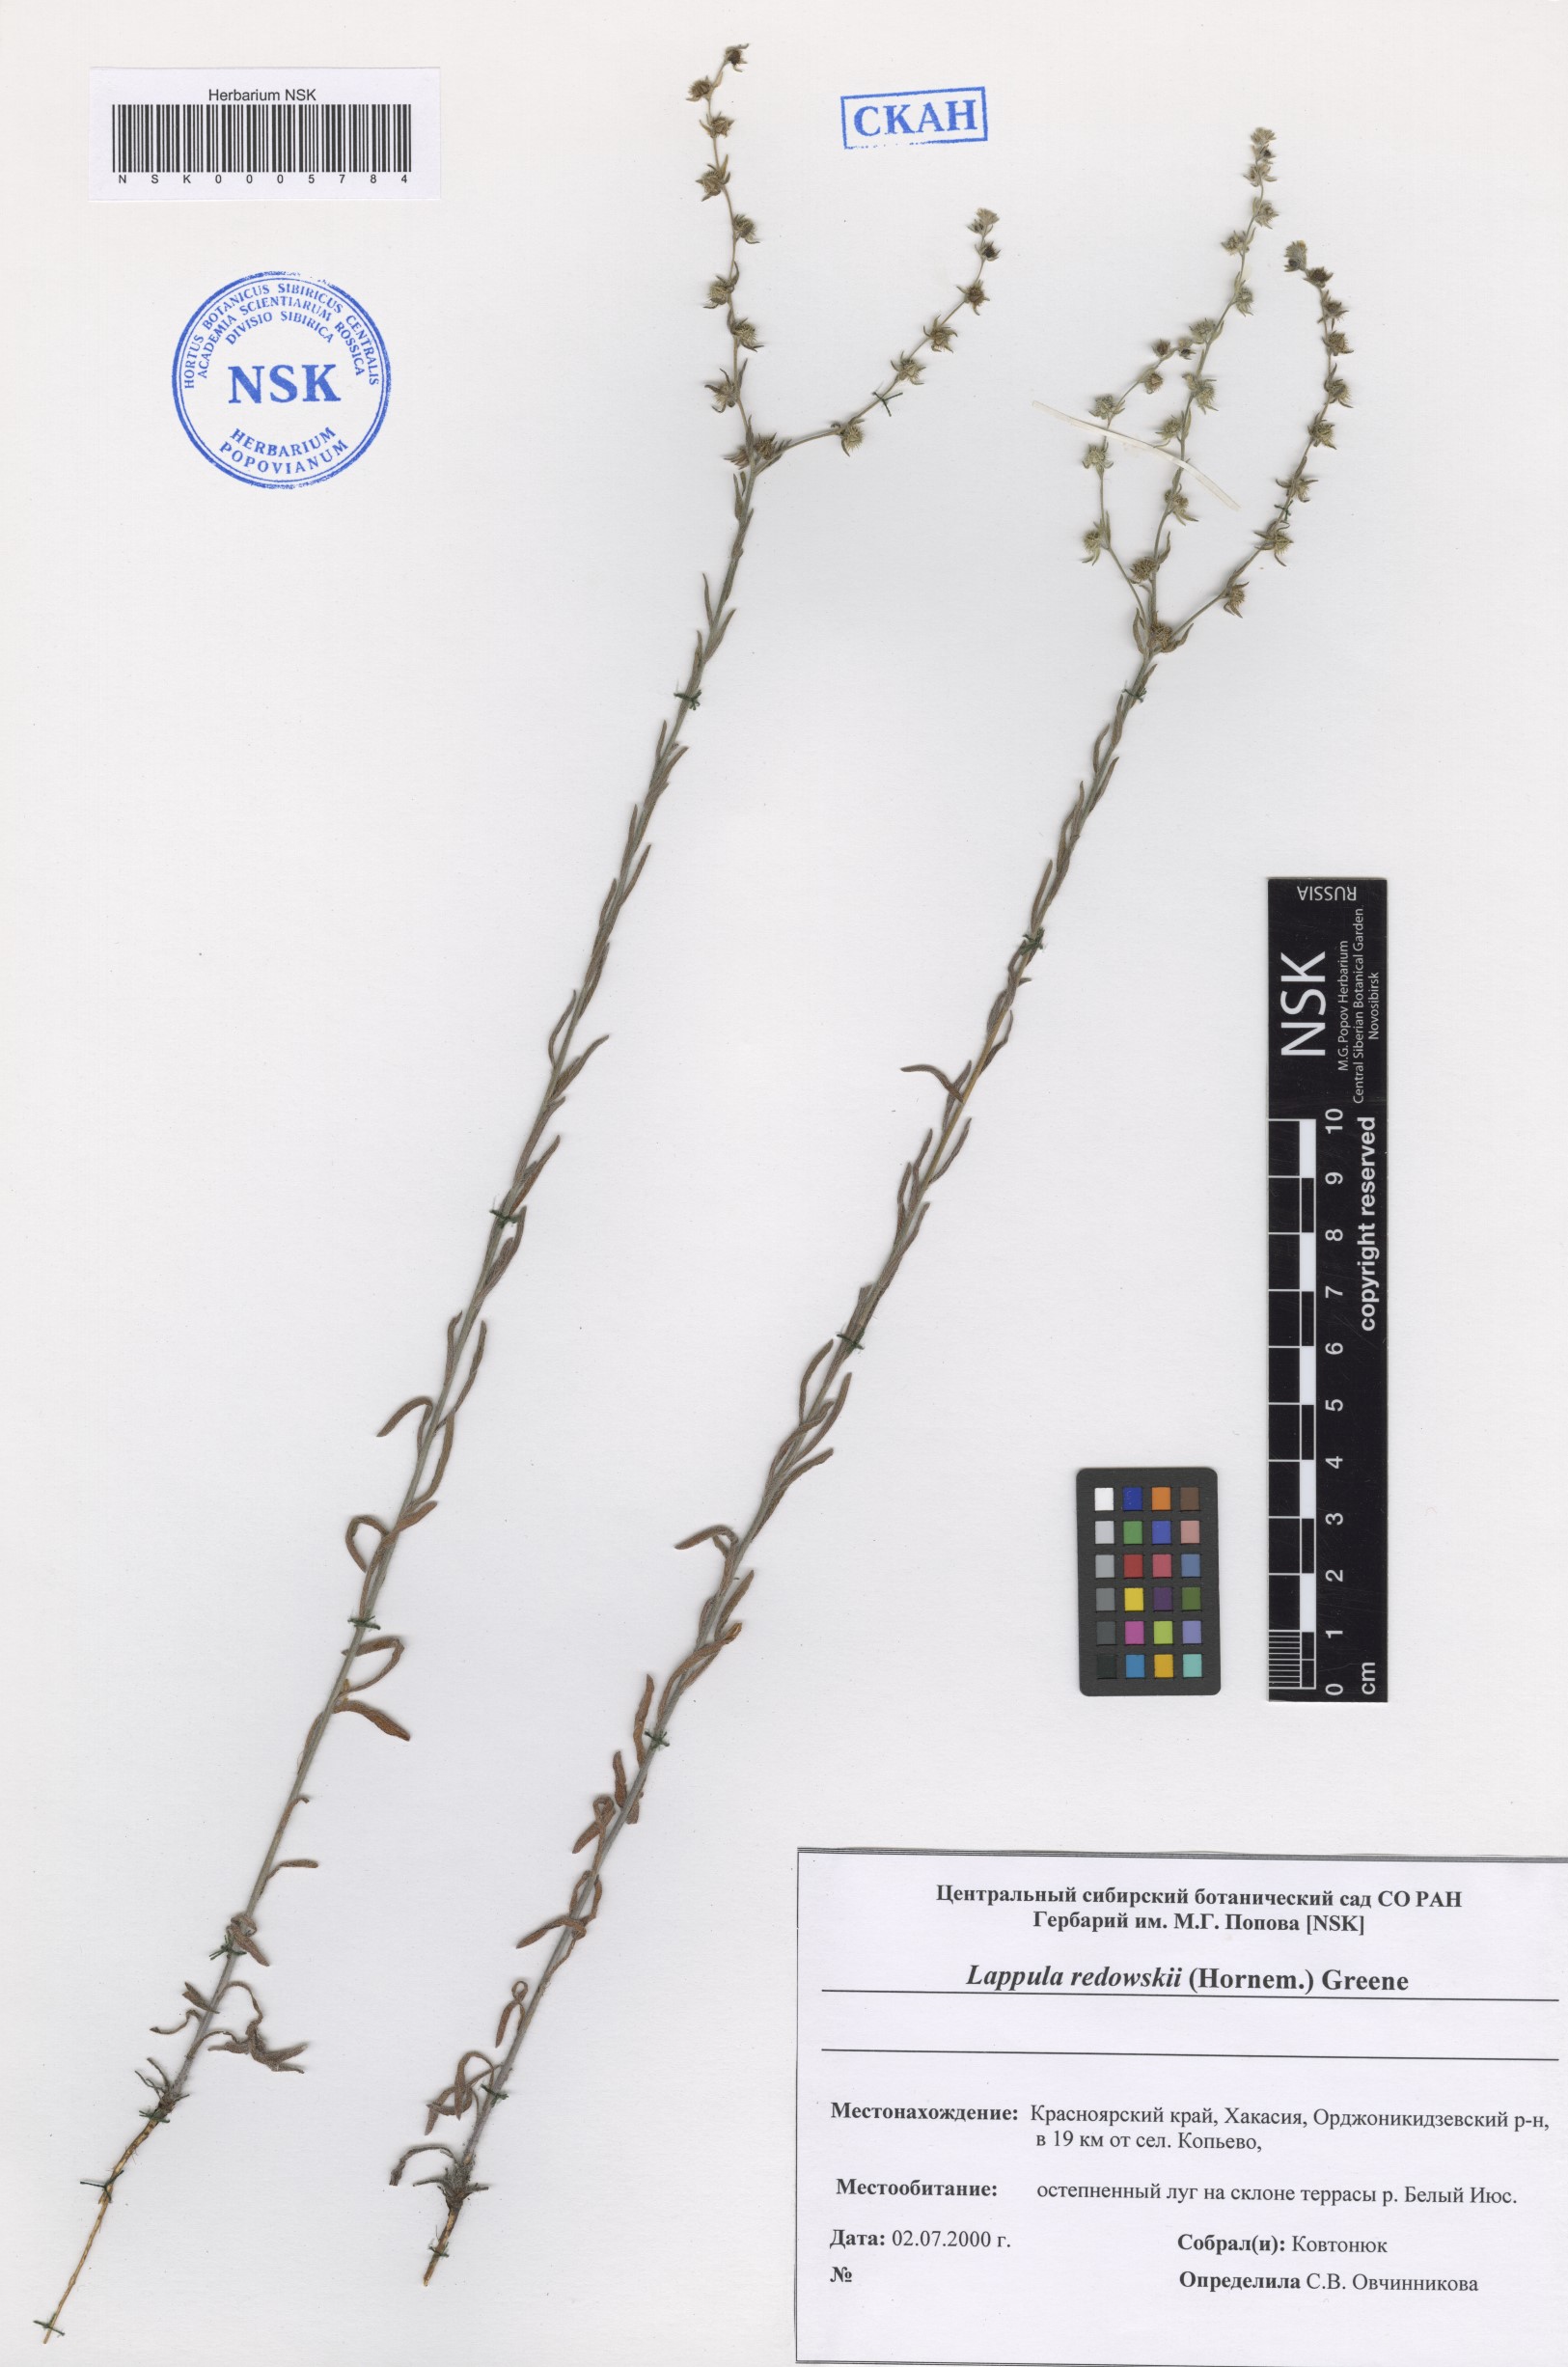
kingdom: Plantae
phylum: Tracheophyta
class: Magnoliopsida
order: Boraginales
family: Boraginaceae
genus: Lappula
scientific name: Lappula redowskii
